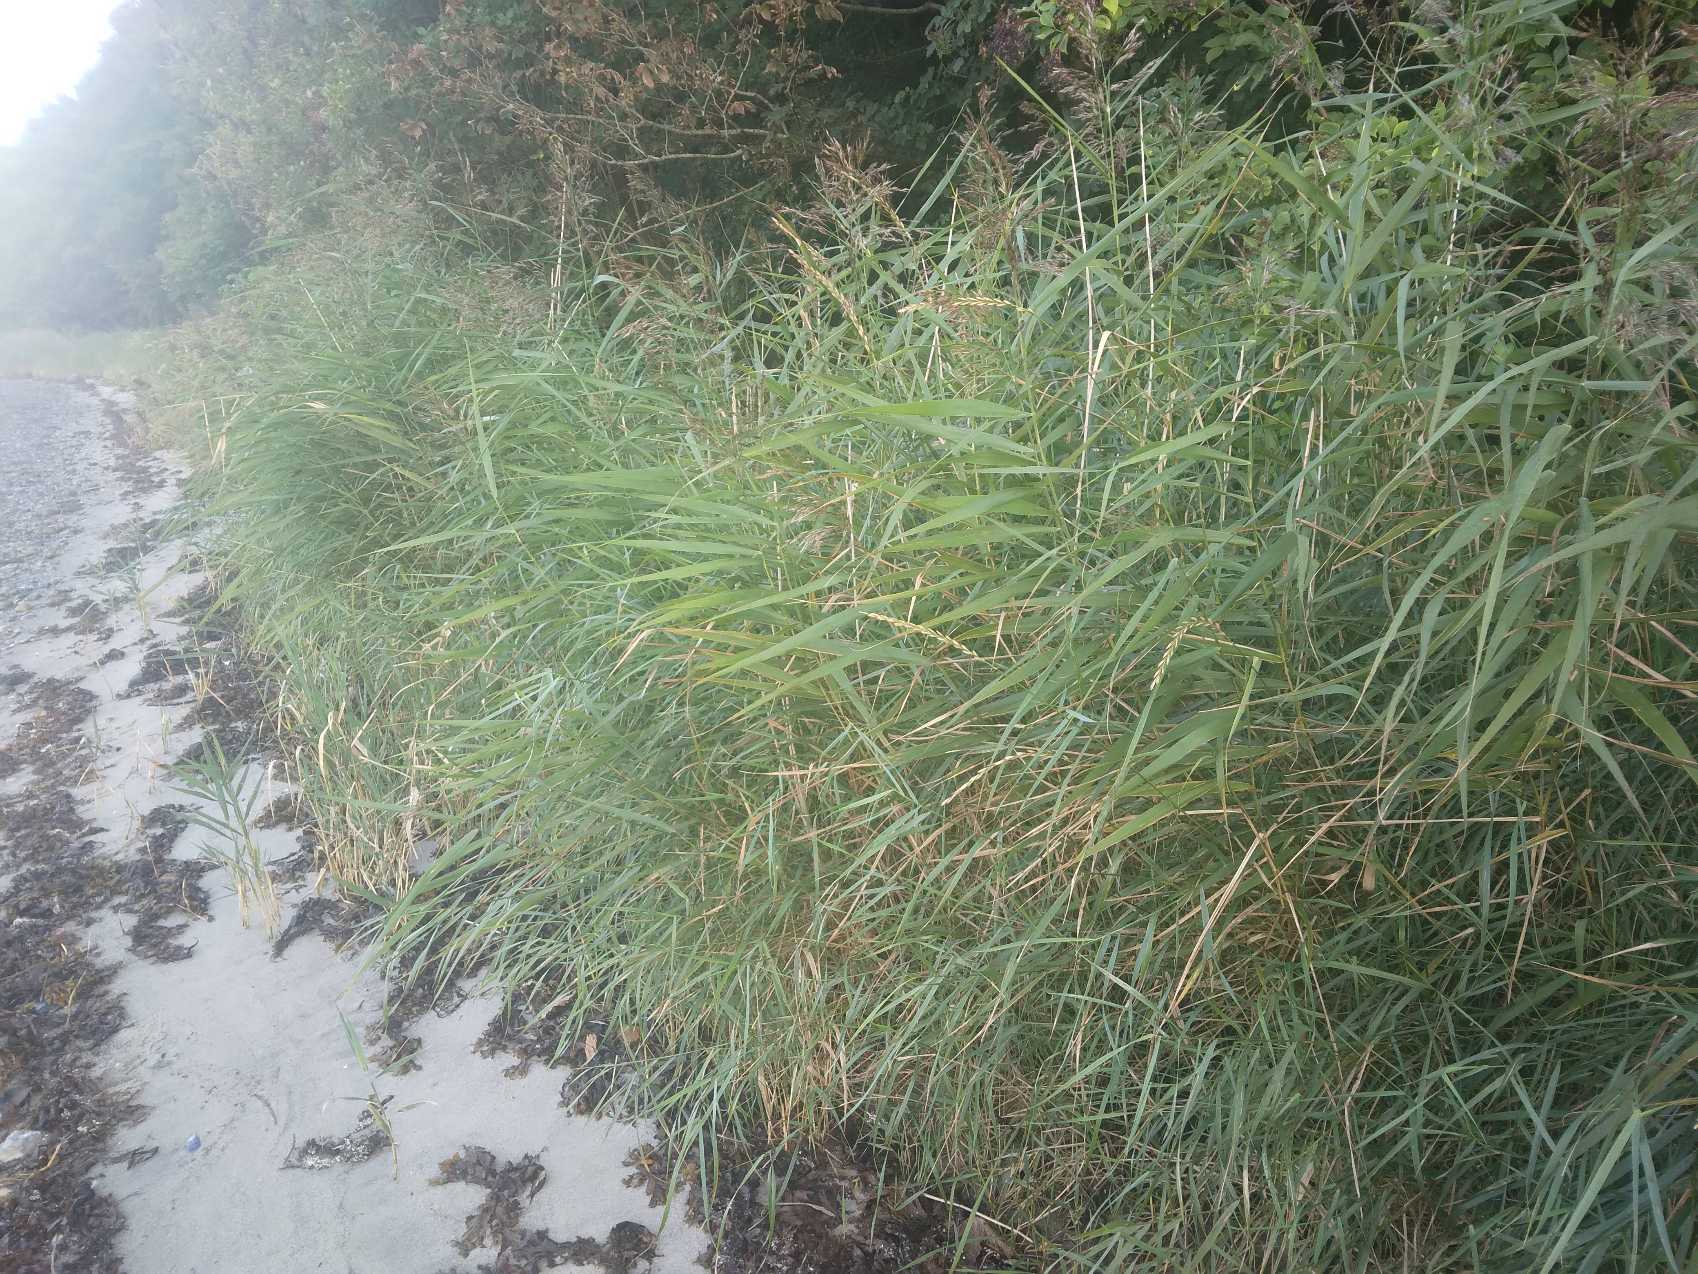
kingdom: Plantae
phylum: Tracheophyta
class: Liliopsida
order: Poales
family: Poaceae
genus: Phragmites
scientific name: Phragmites australis
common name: Tagrør
